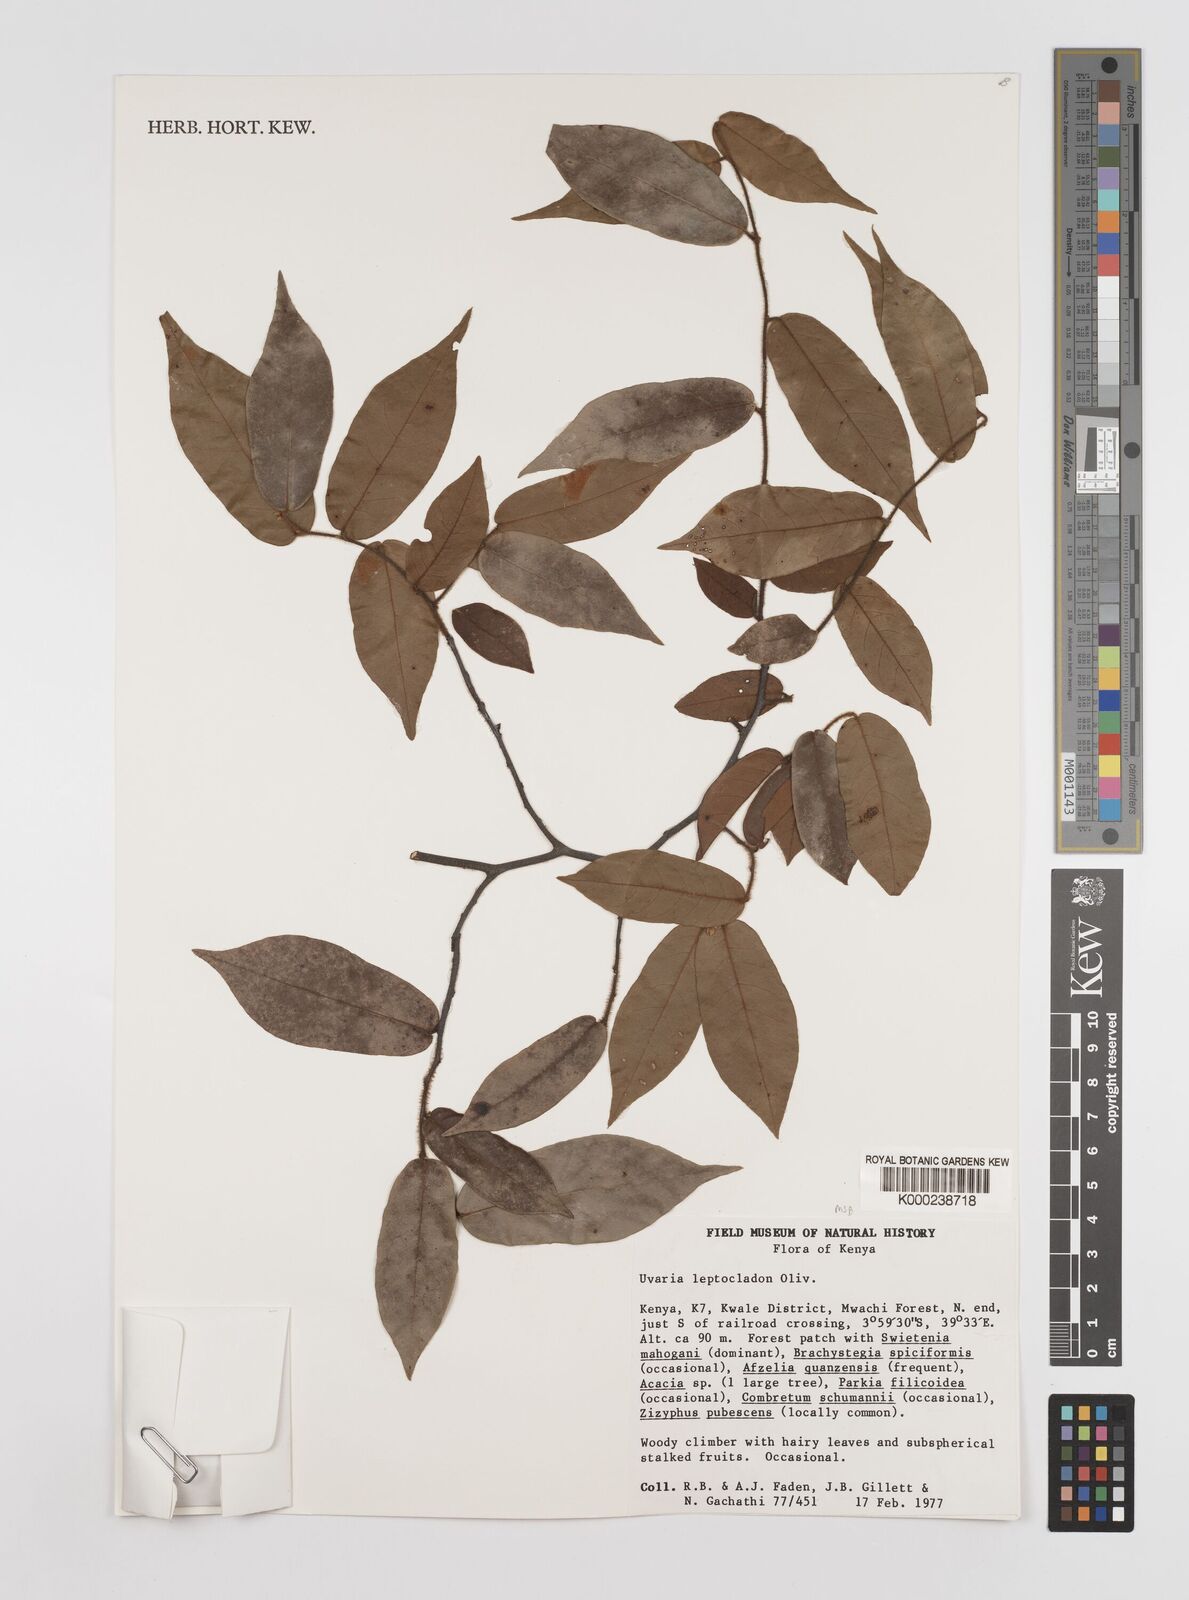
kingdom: Plantae
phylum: Tracheophyta
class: Magnoliopsida
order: Magnoliales
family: Annonaceae
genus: Uvaria
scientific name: Uvaria leptocladon
